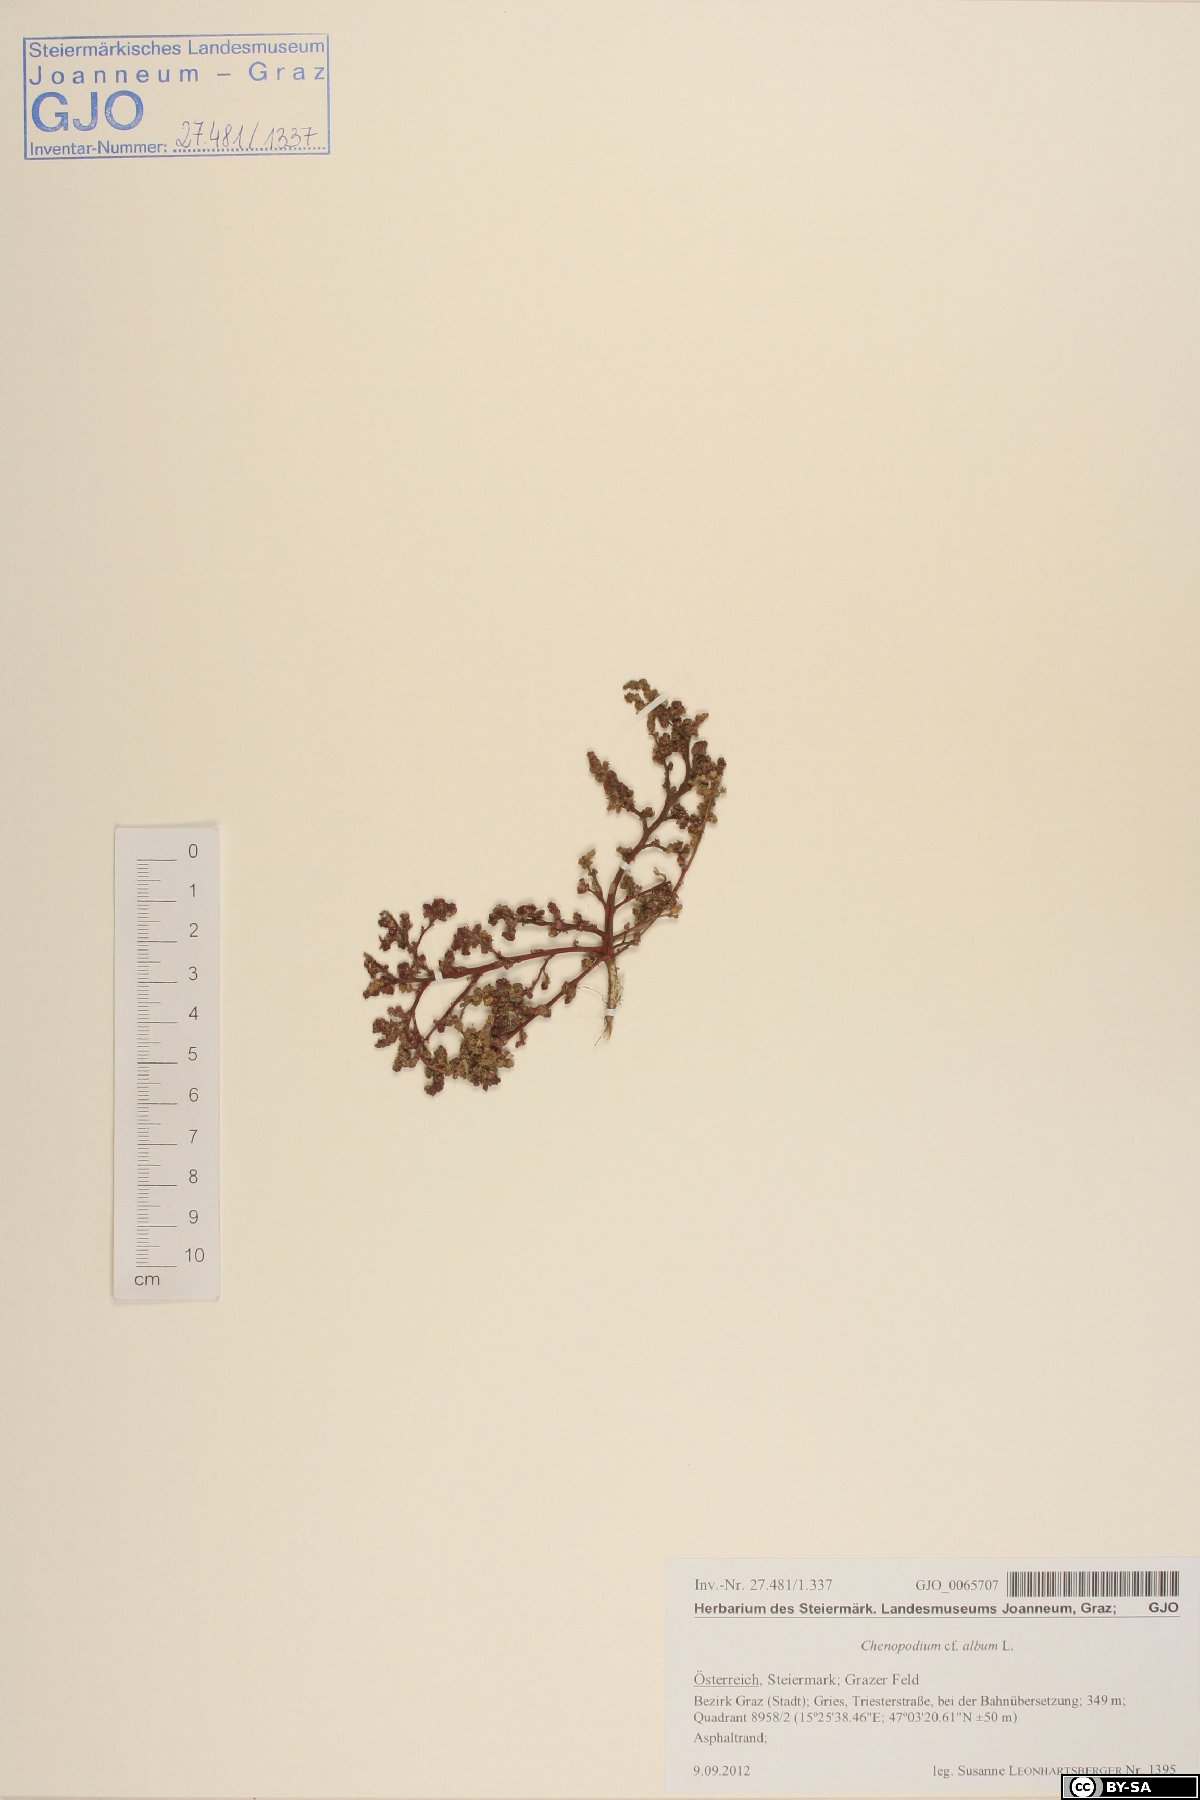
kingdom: Plantae
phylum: Tracheophyta
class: Magnoliopsida
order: Caryophyllales
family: Amaranthaceae
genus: Chenopodium
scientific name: Chenopodium album
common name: Fat-hen
